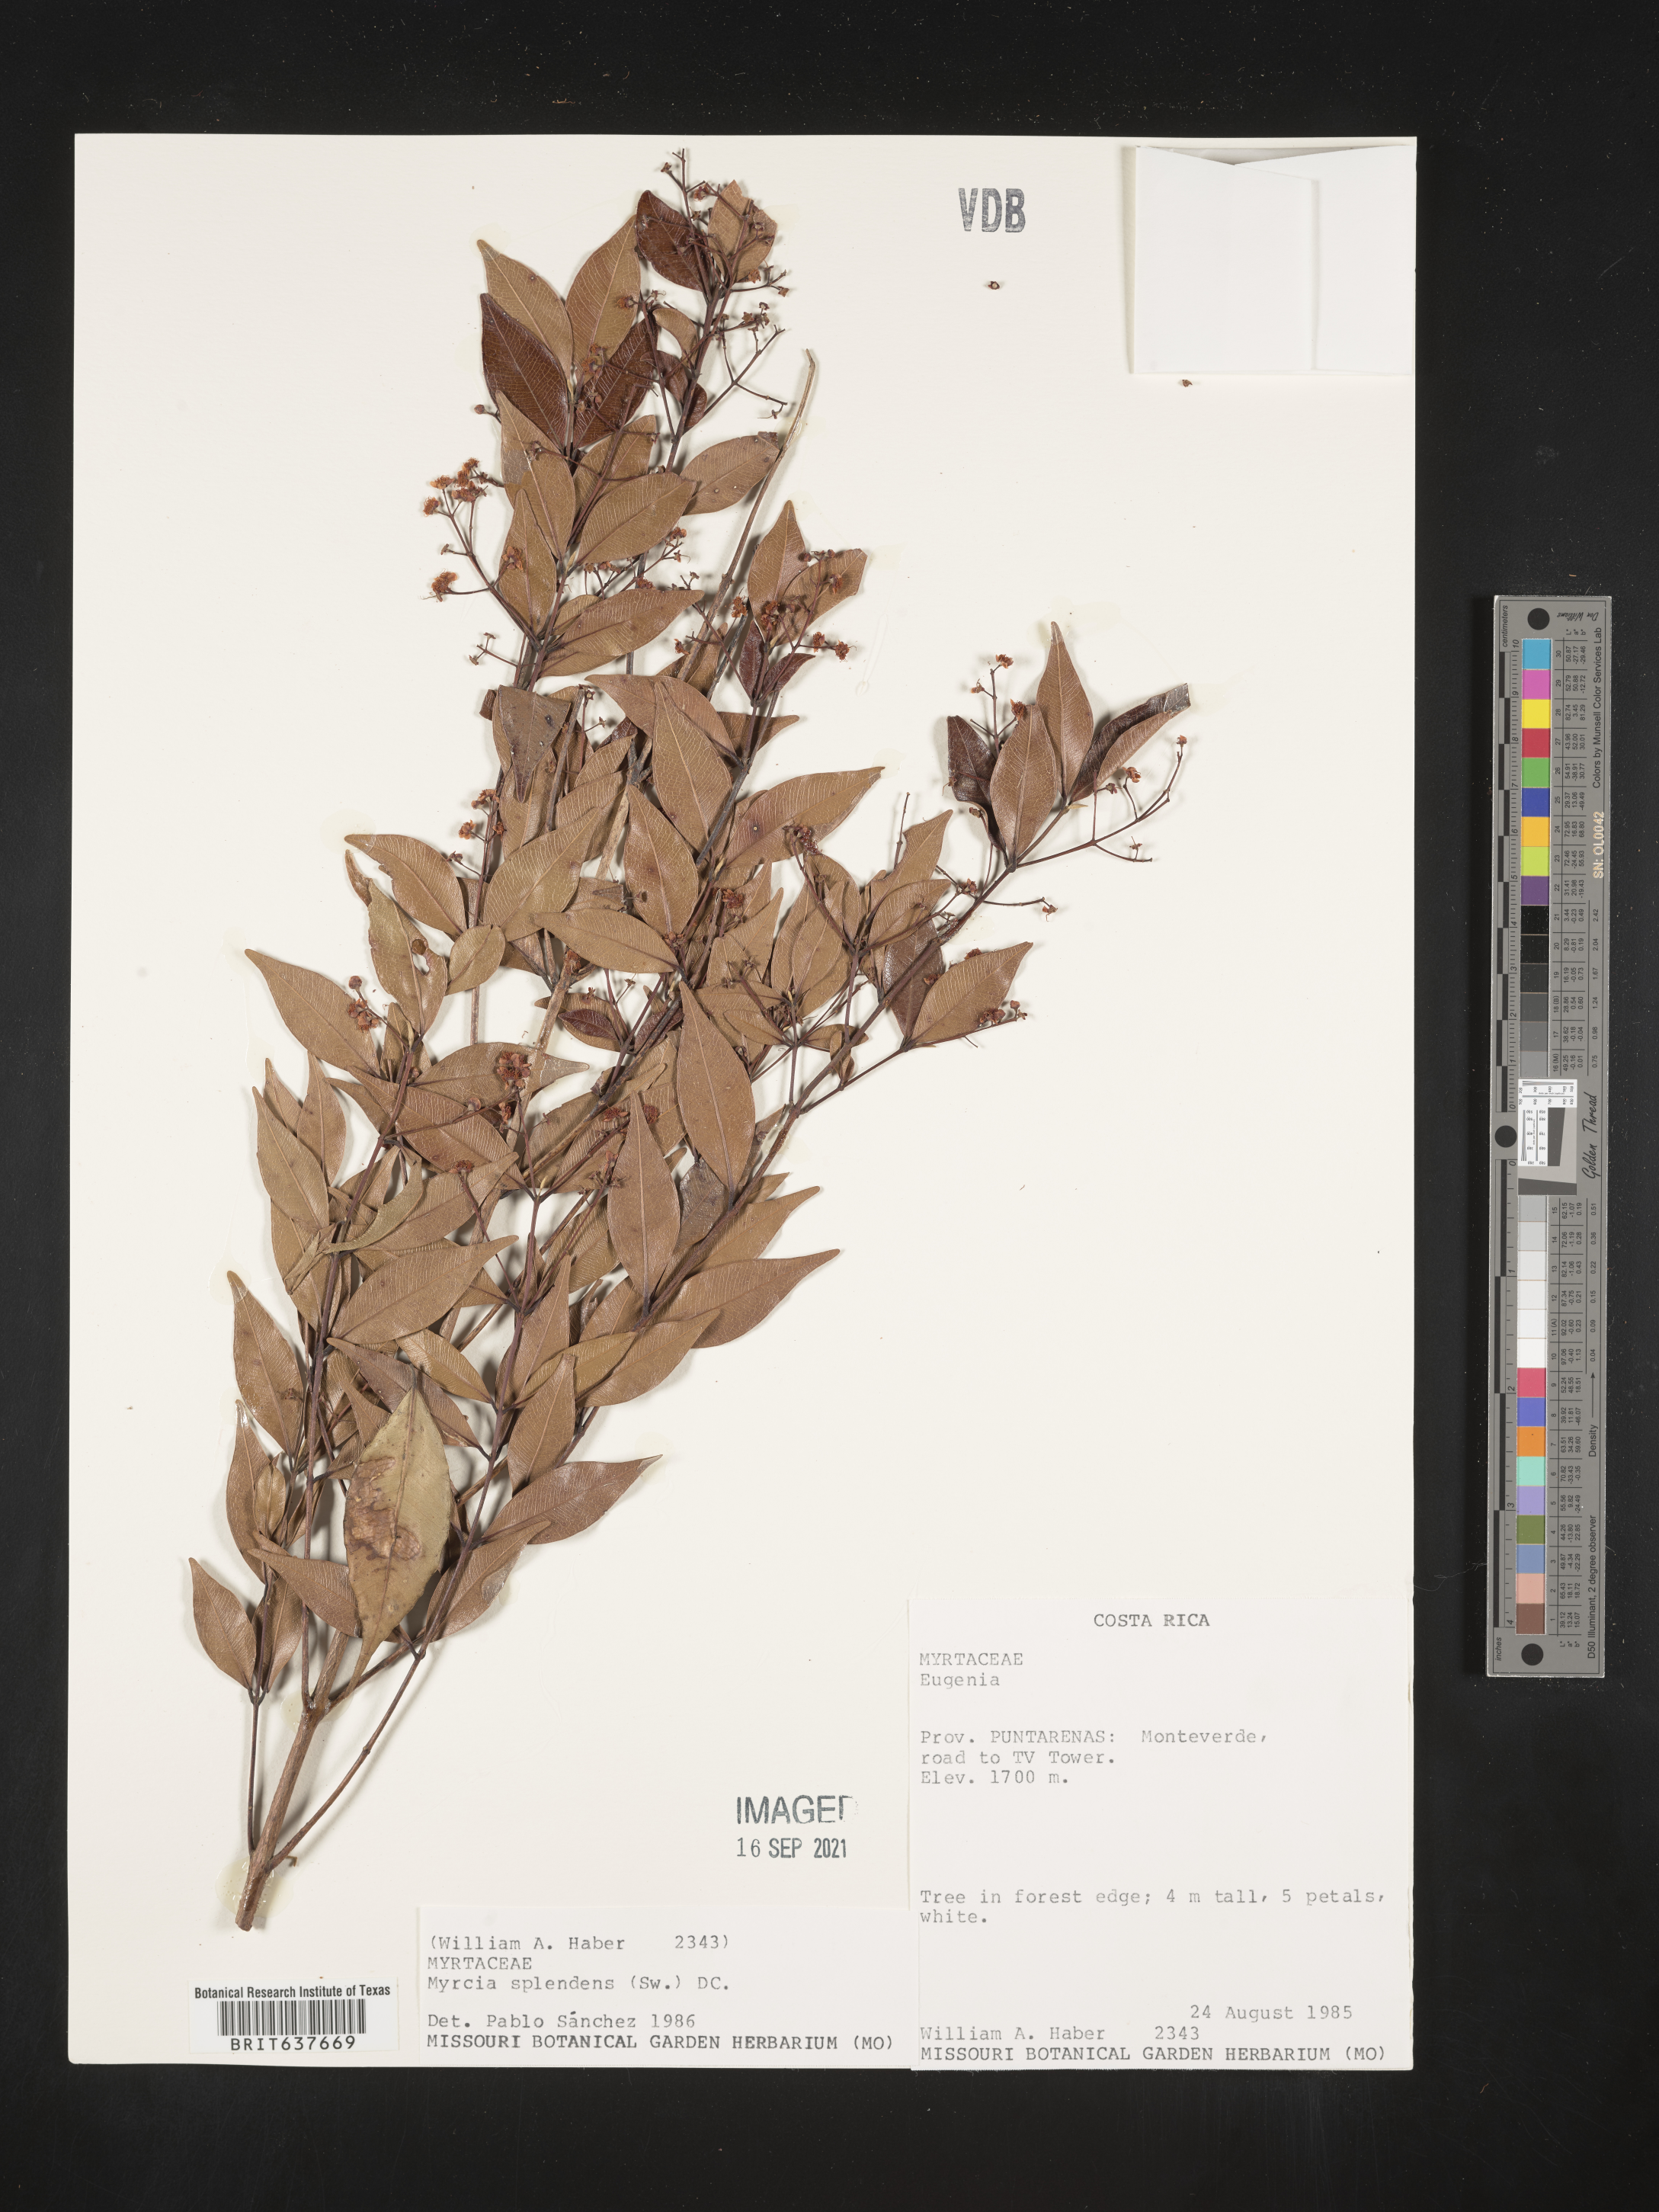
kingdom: Plantae
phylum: Tracheophyta
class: Magnoliopsida
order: Myrtales
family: Myrtaceae
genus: Myrcia
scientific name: Myrcia
